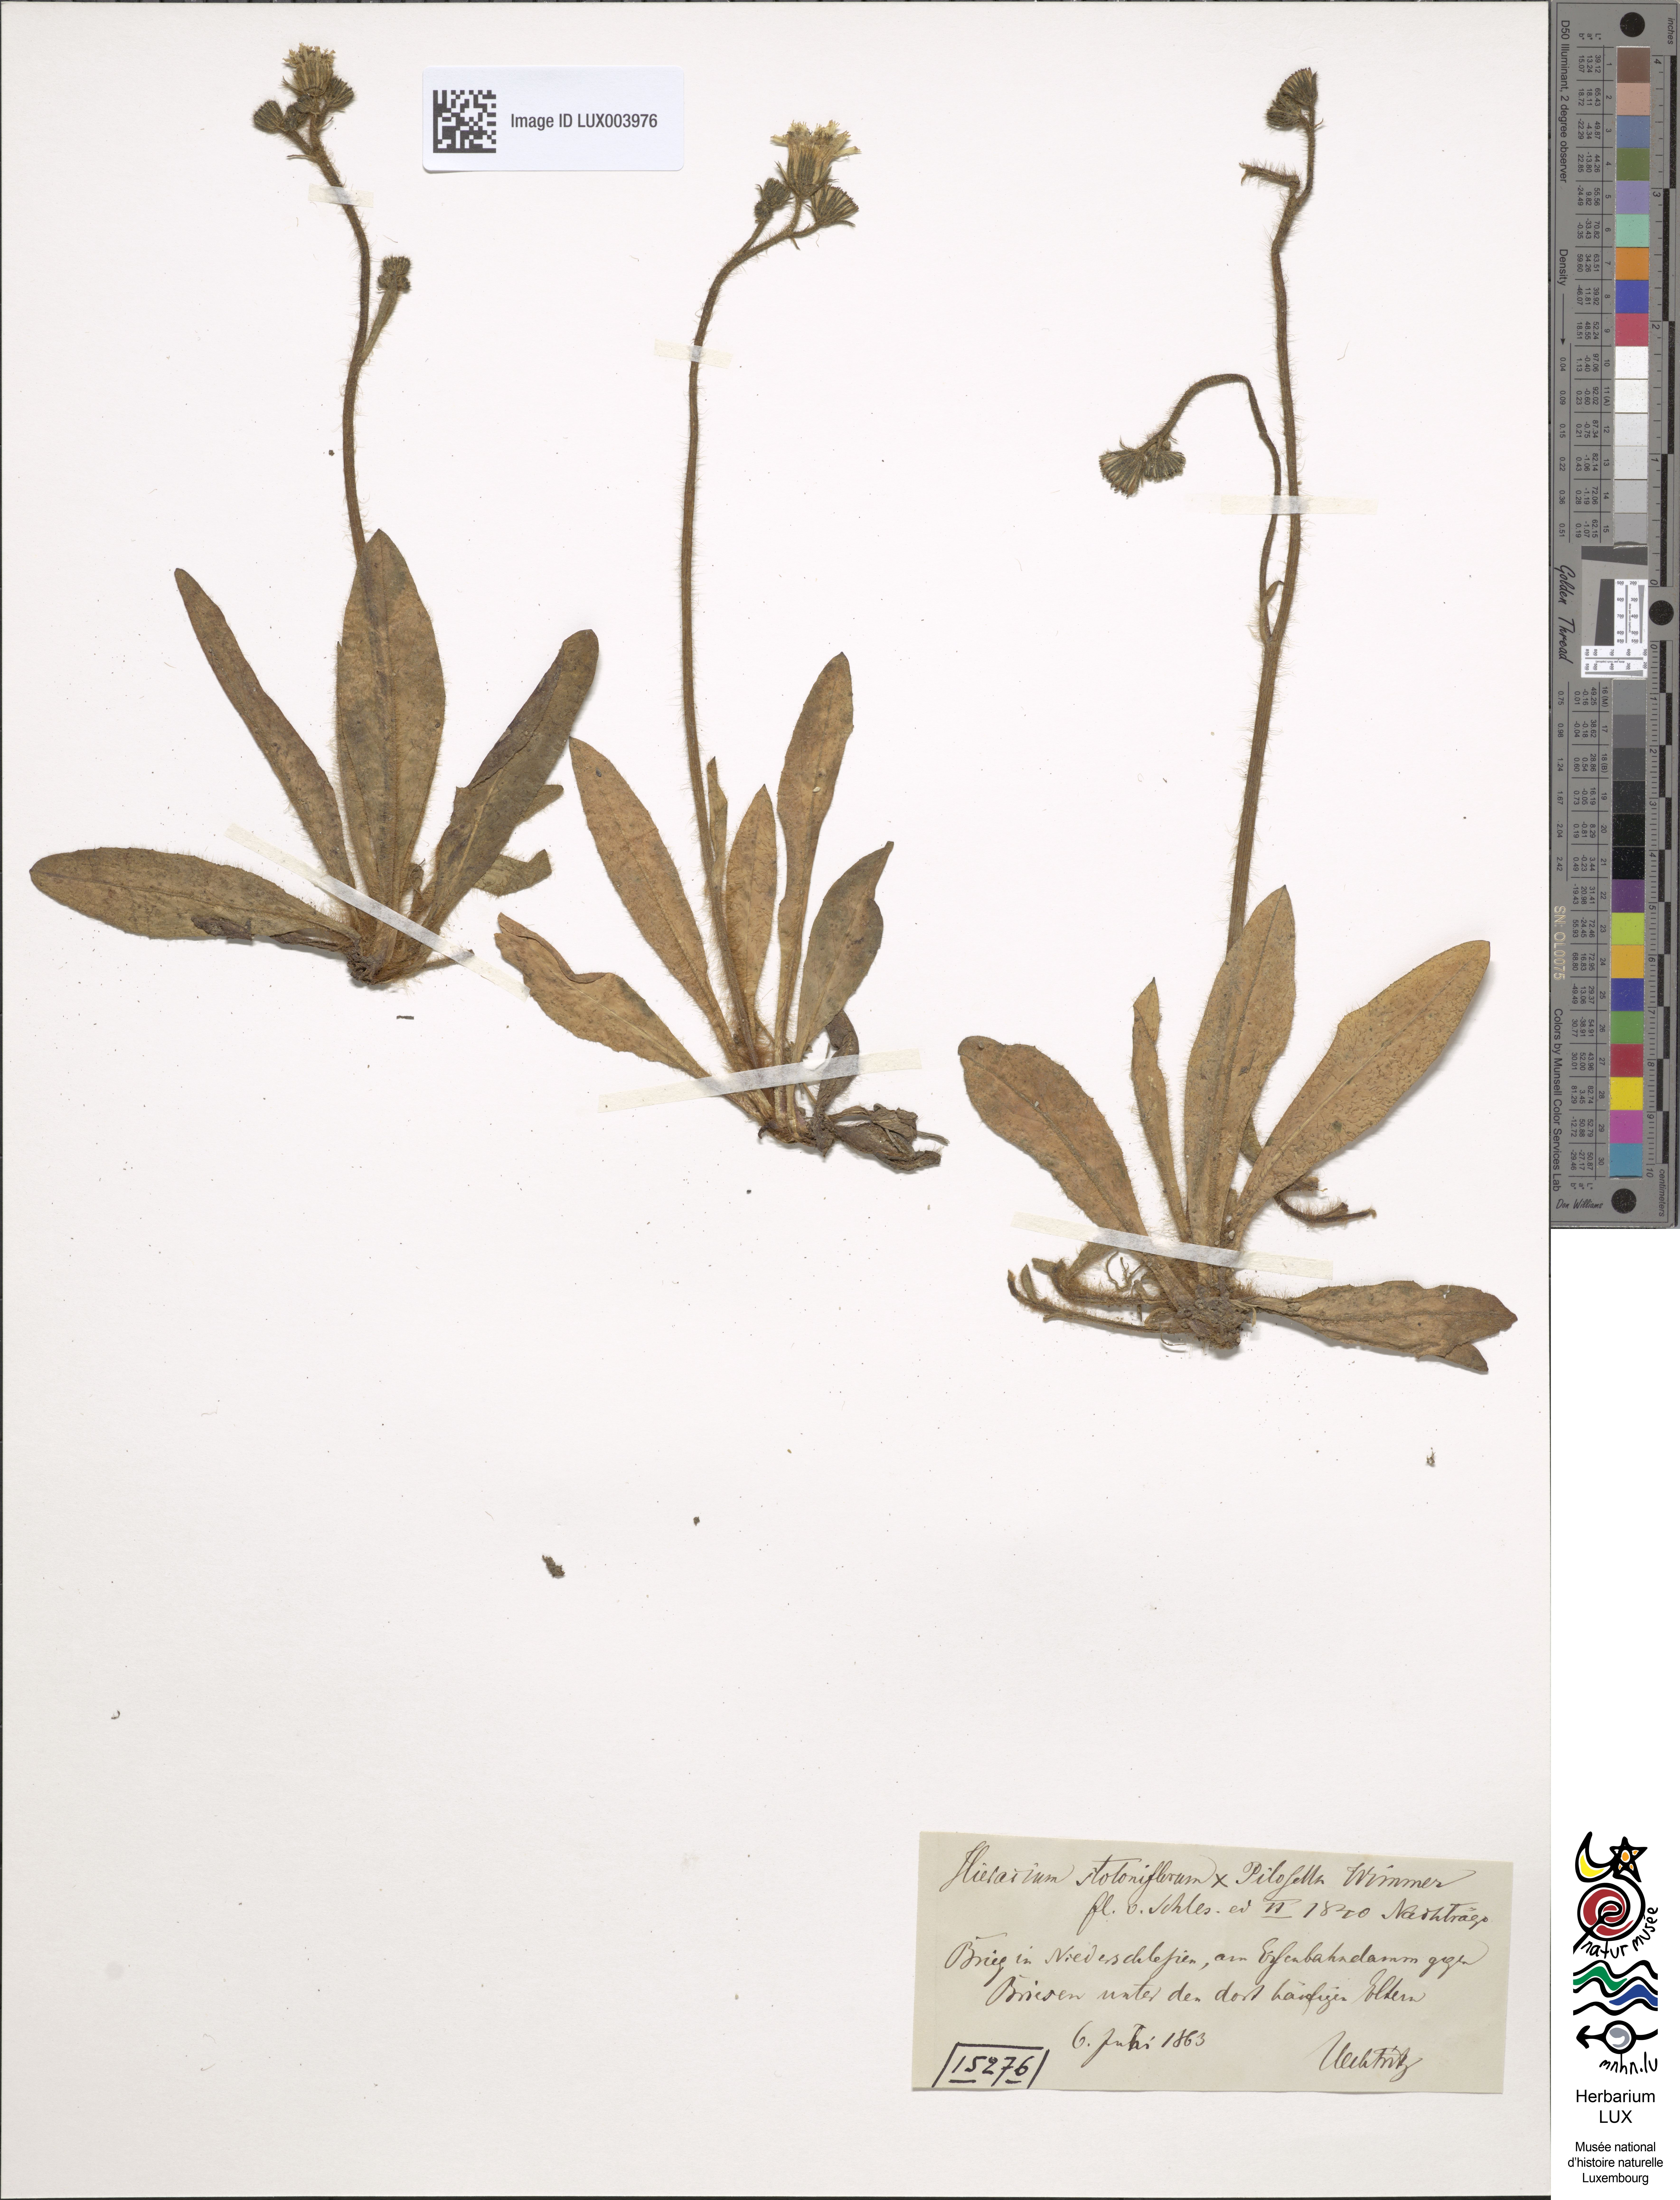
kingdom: Plantae
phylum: Tracheophyta
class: Magnoliopsida
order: Asterales
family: Asteraceae
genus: Pilosella
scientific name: Pilosella stoloniflora
